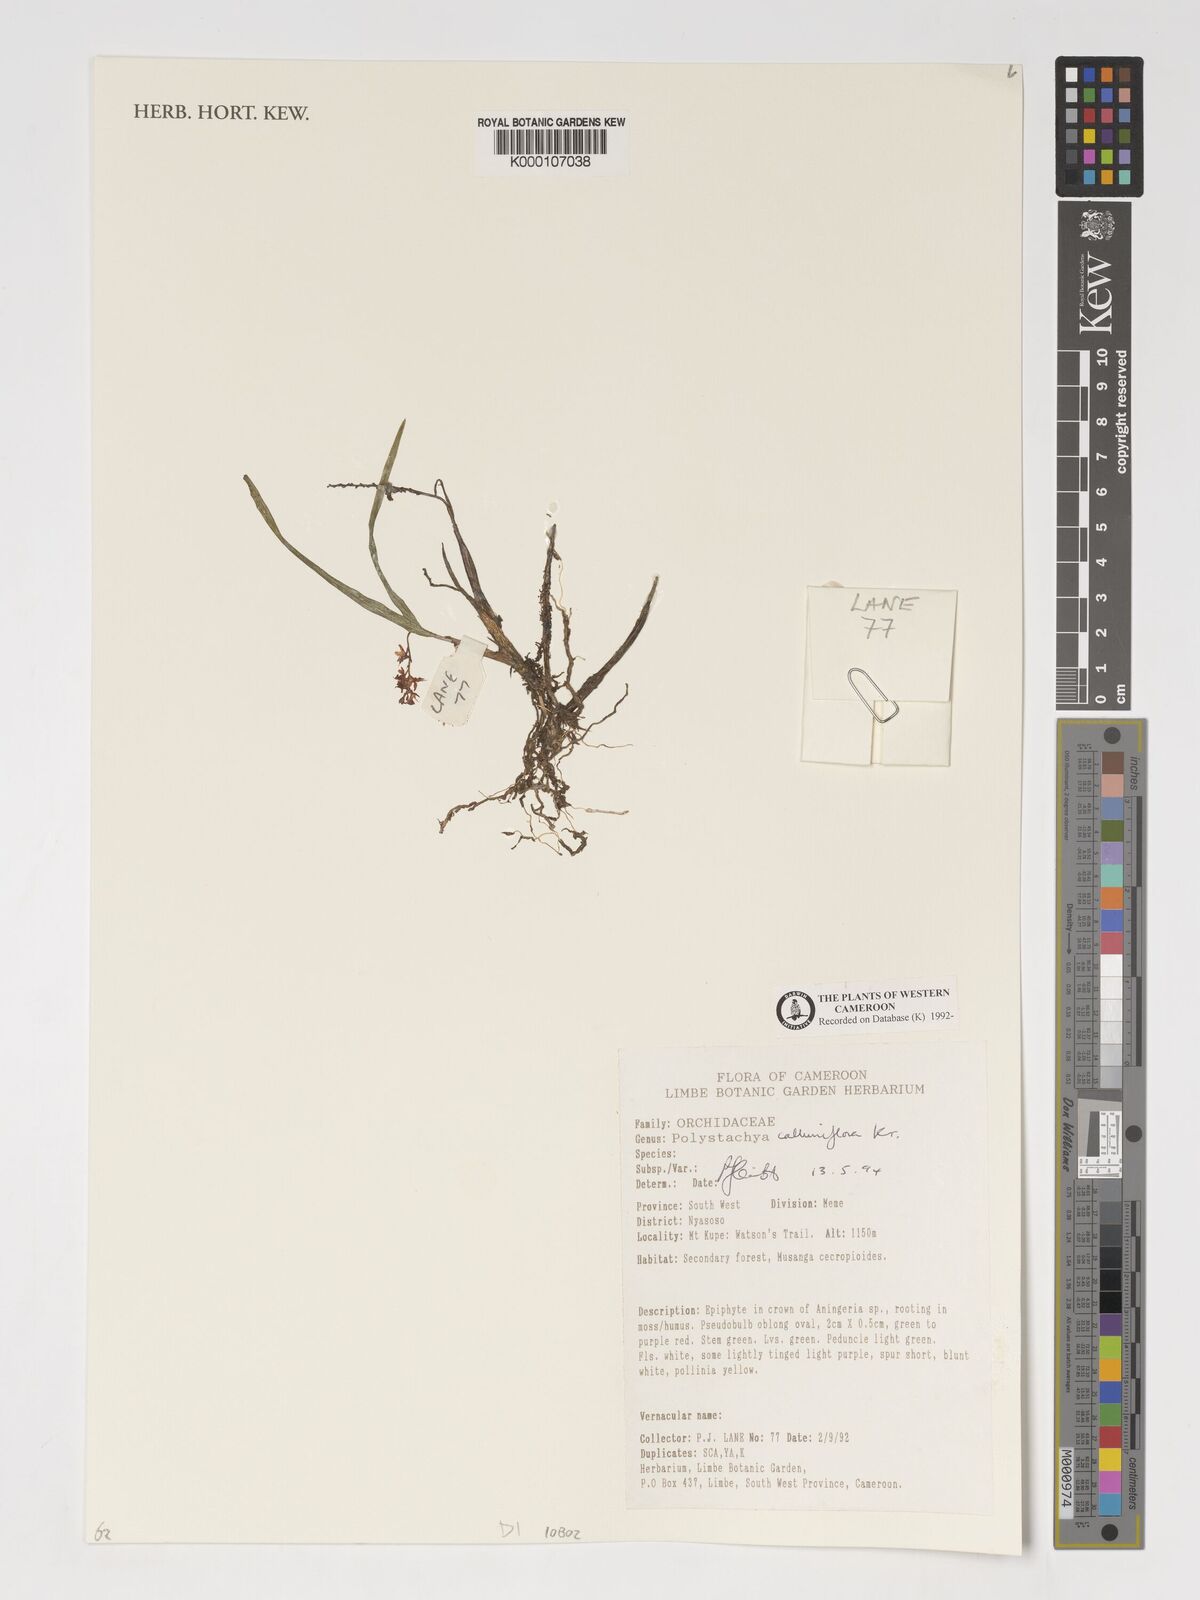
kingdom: Plantae
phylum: Tracheophyta
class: Liliopsida
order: Asparagales
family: Orchidaceae
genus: Polystachya
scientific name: Polystachya calluniflora
